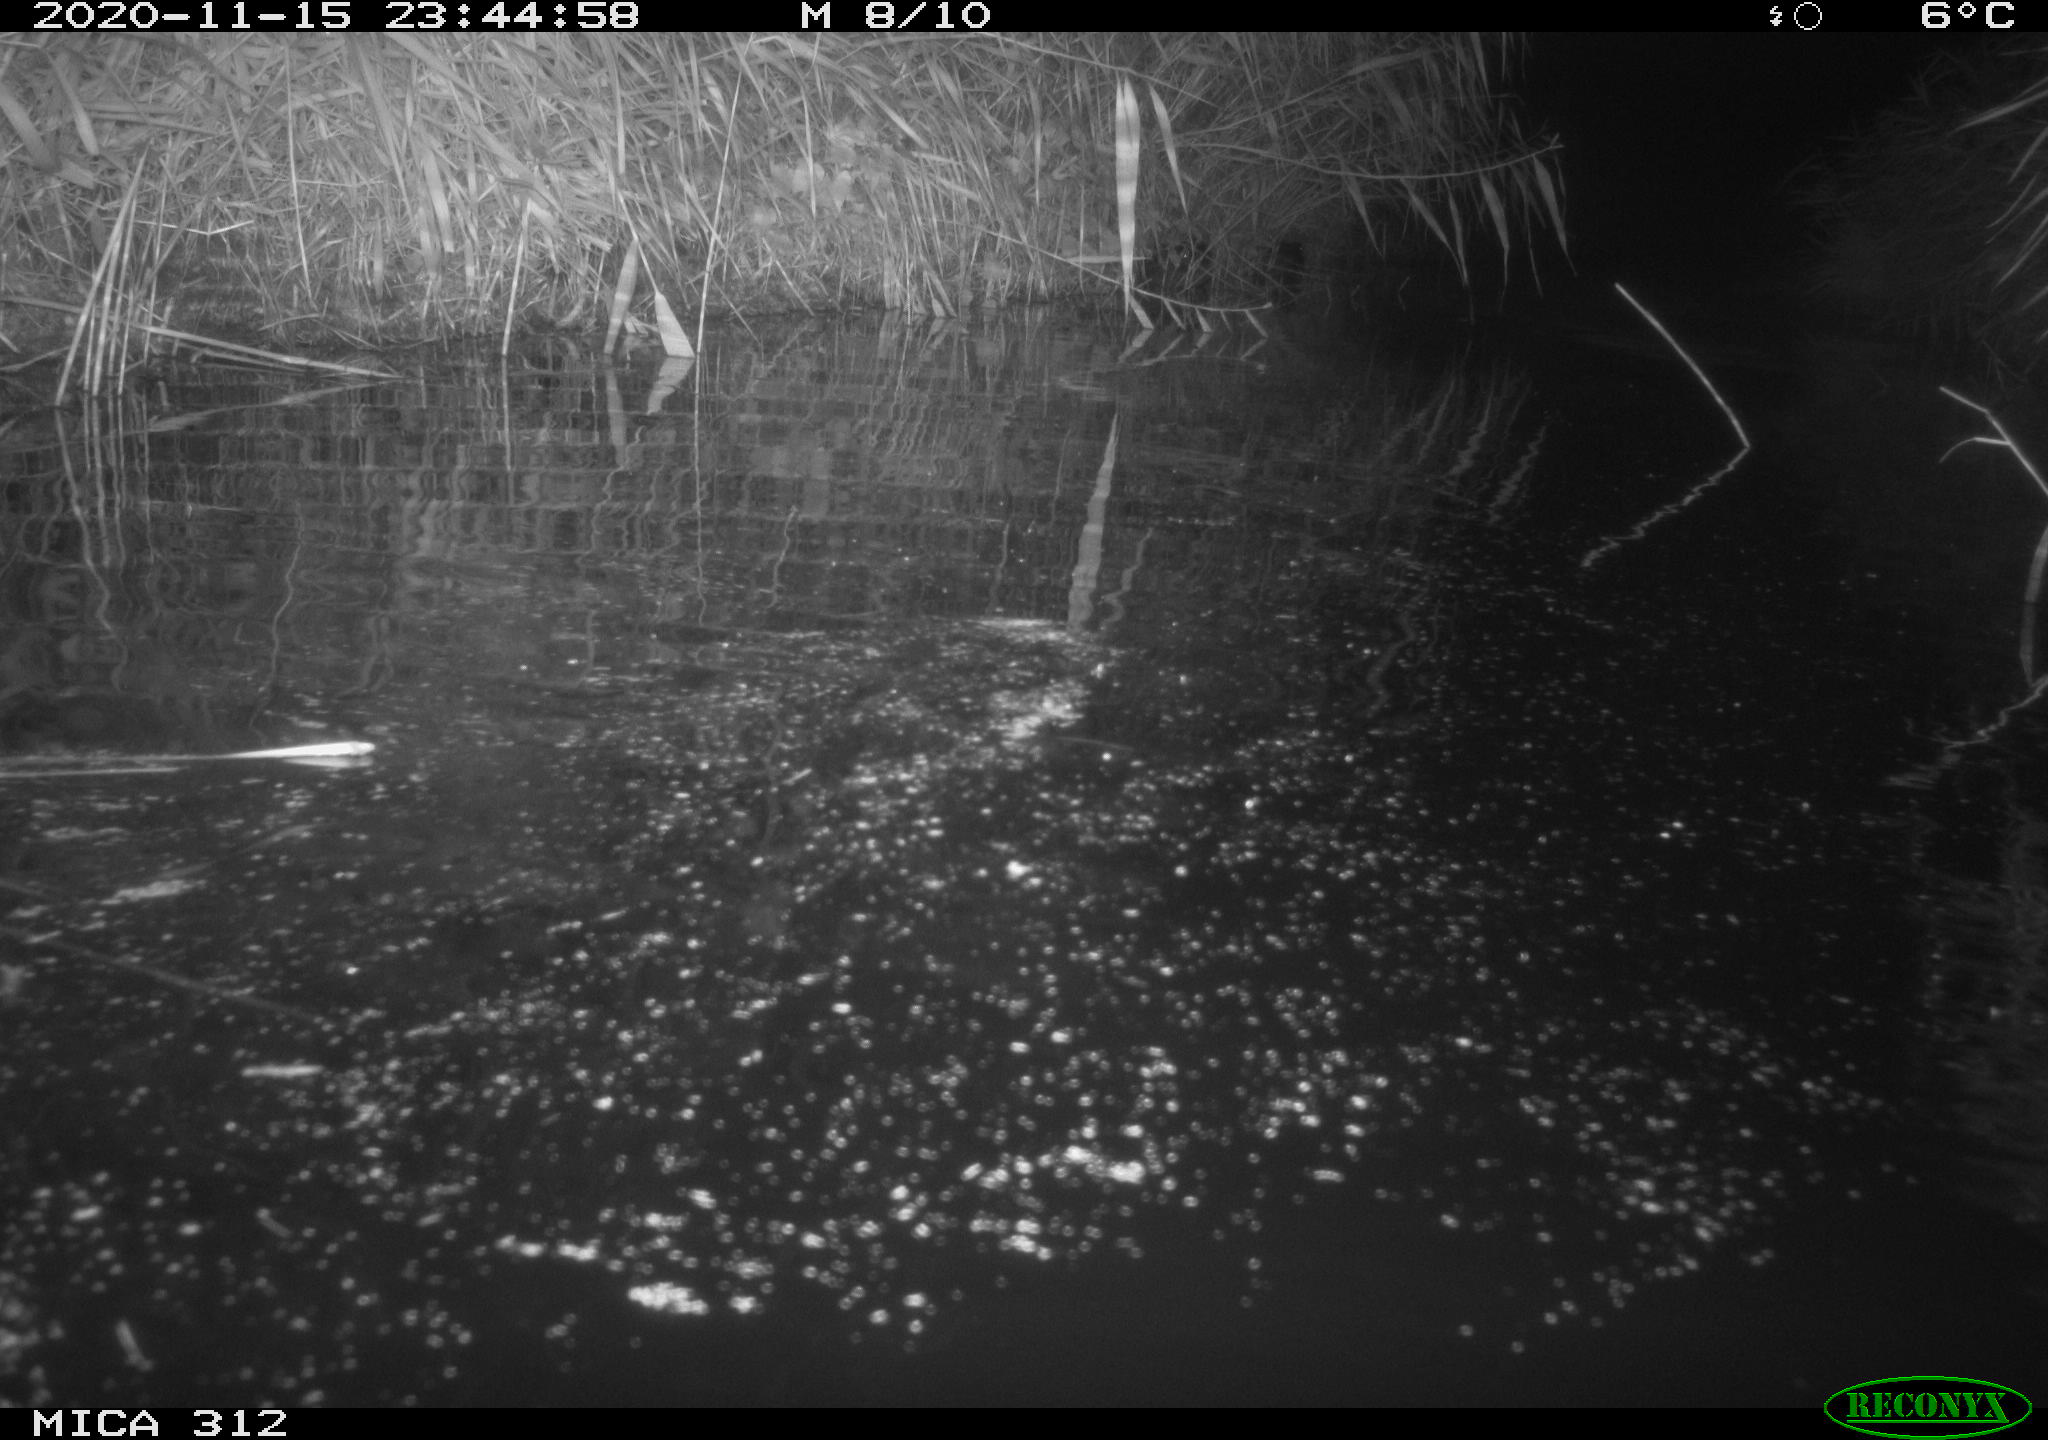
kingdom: Animalia
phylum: Chordata
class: Mammalia
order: Rodentia
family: Muridae
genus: Rattus
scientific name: Rattus norvegicus
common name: Brown rat
